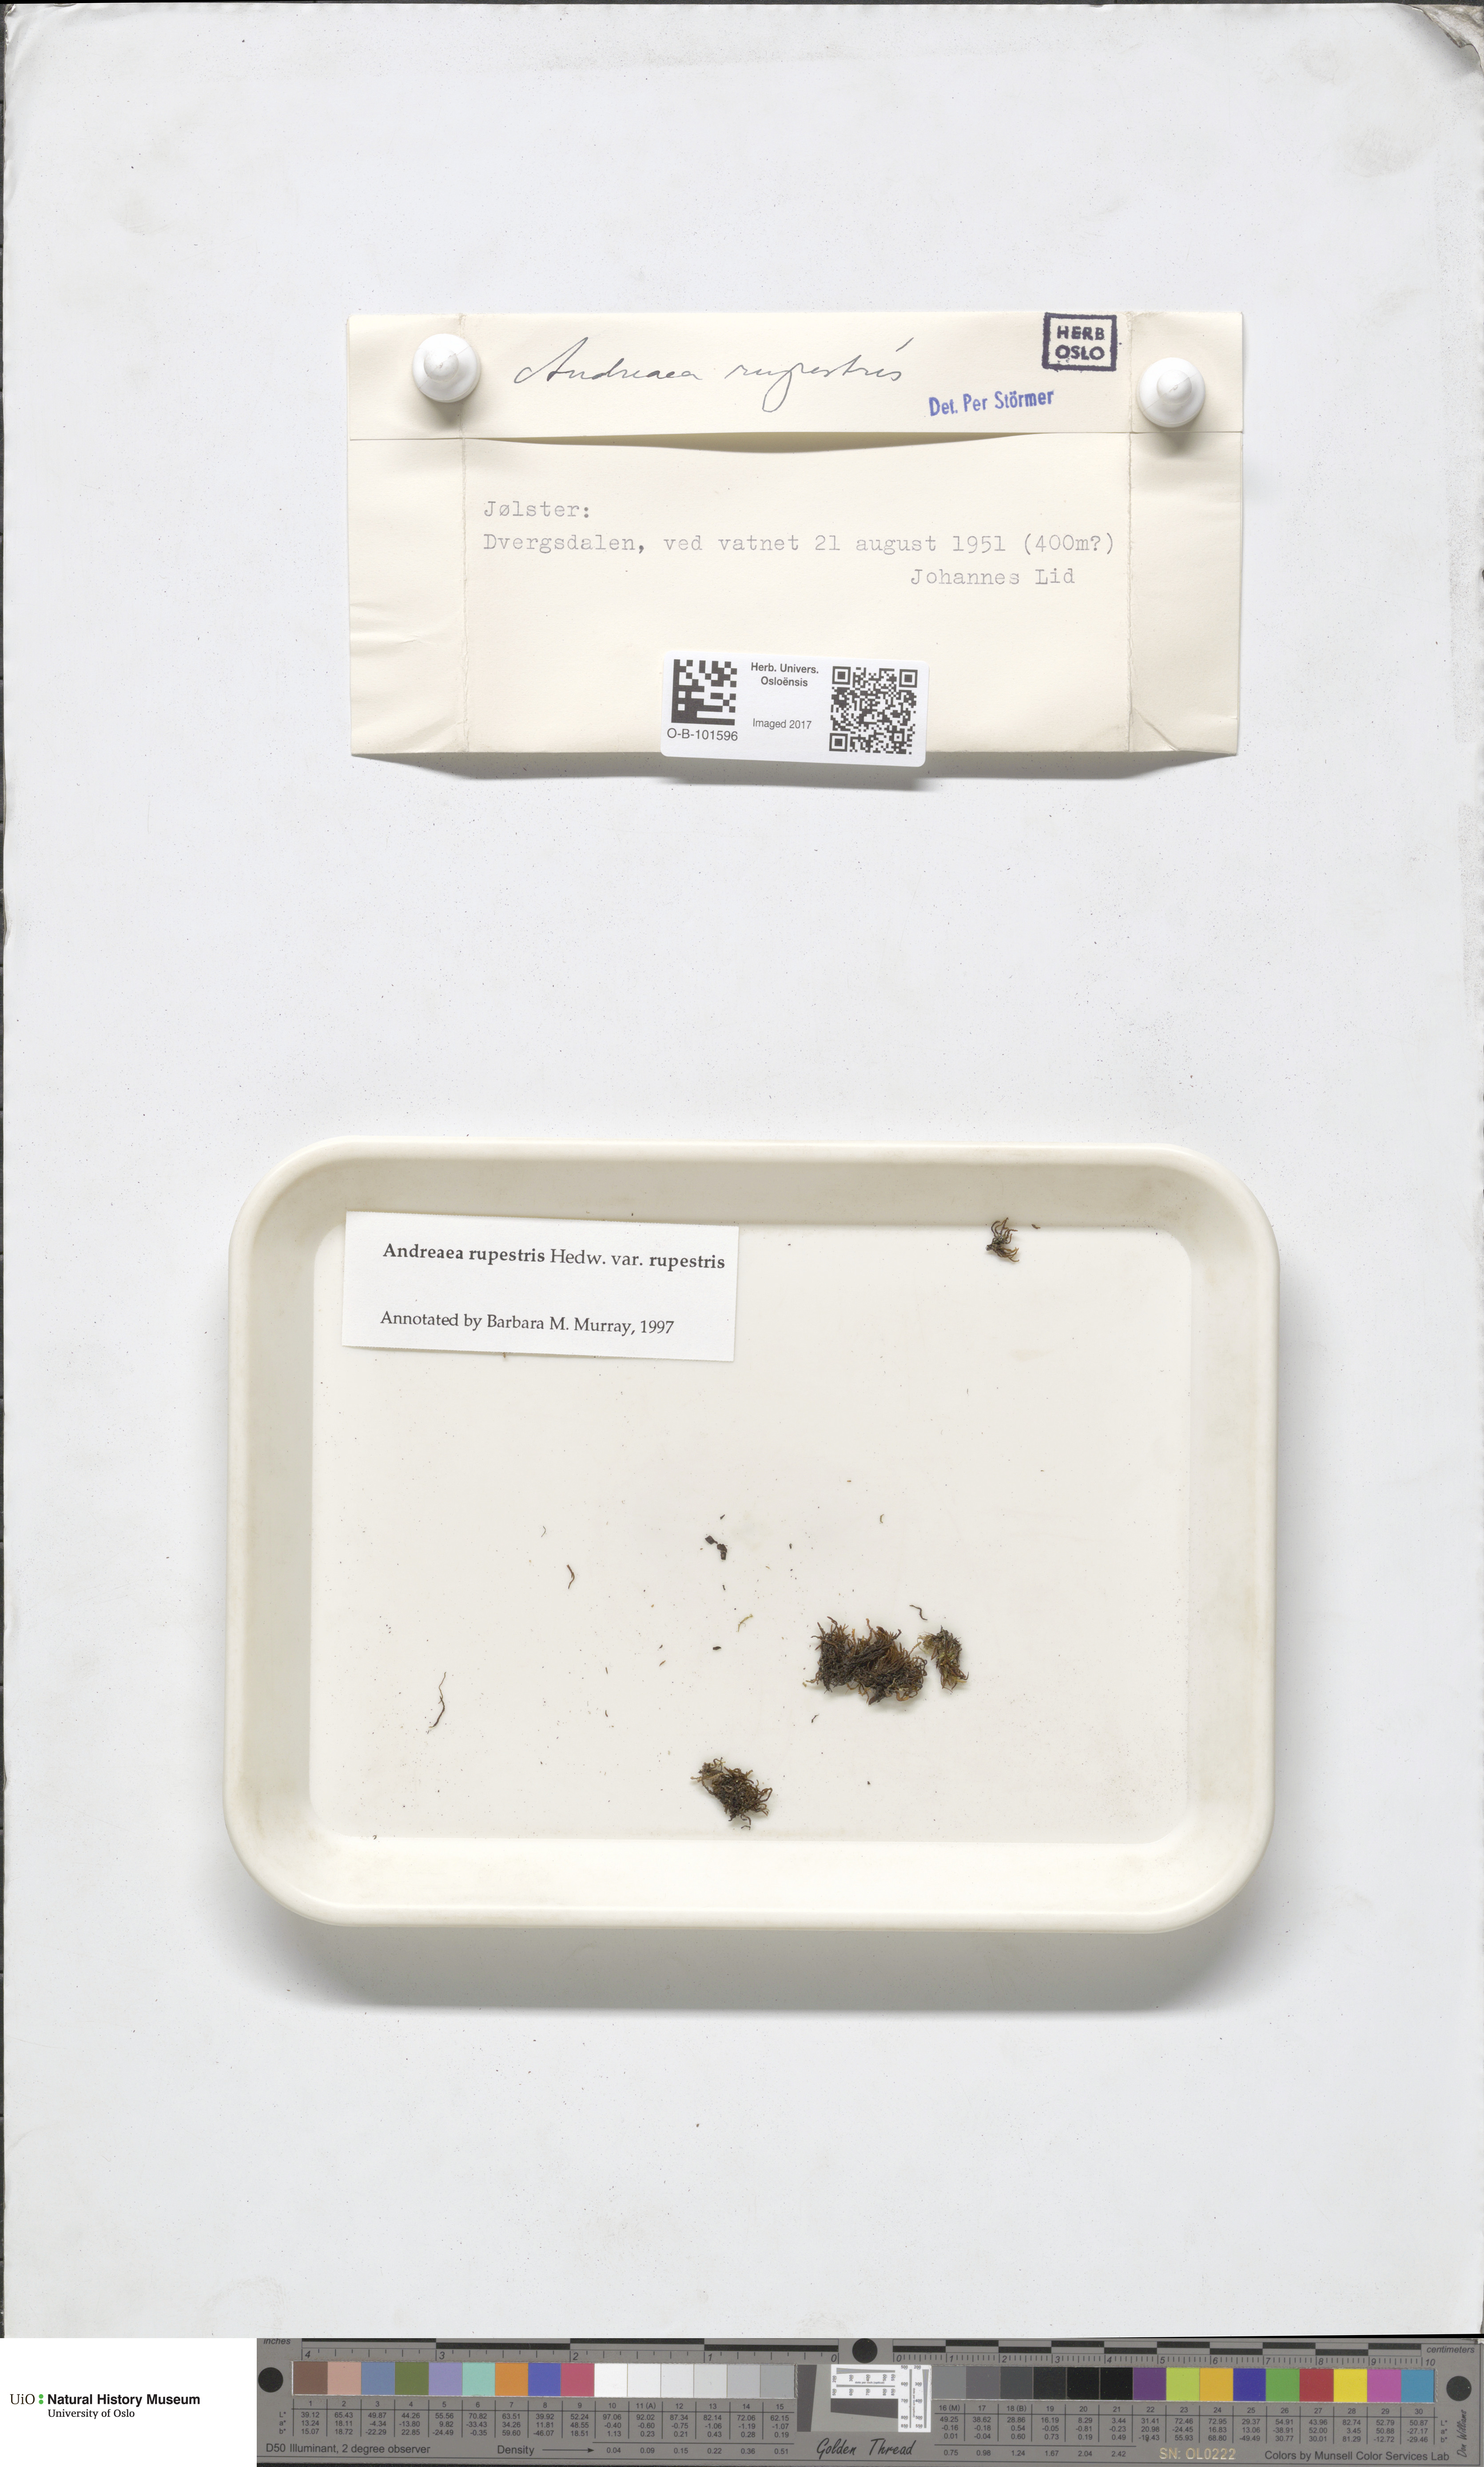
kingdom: Plantae
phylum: Bryophyta
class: Andreaeopsida
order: Andreaeales
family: Andreaeaceae
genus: Andreaea
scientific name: Andreaea rupestris
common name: Black rock moss
